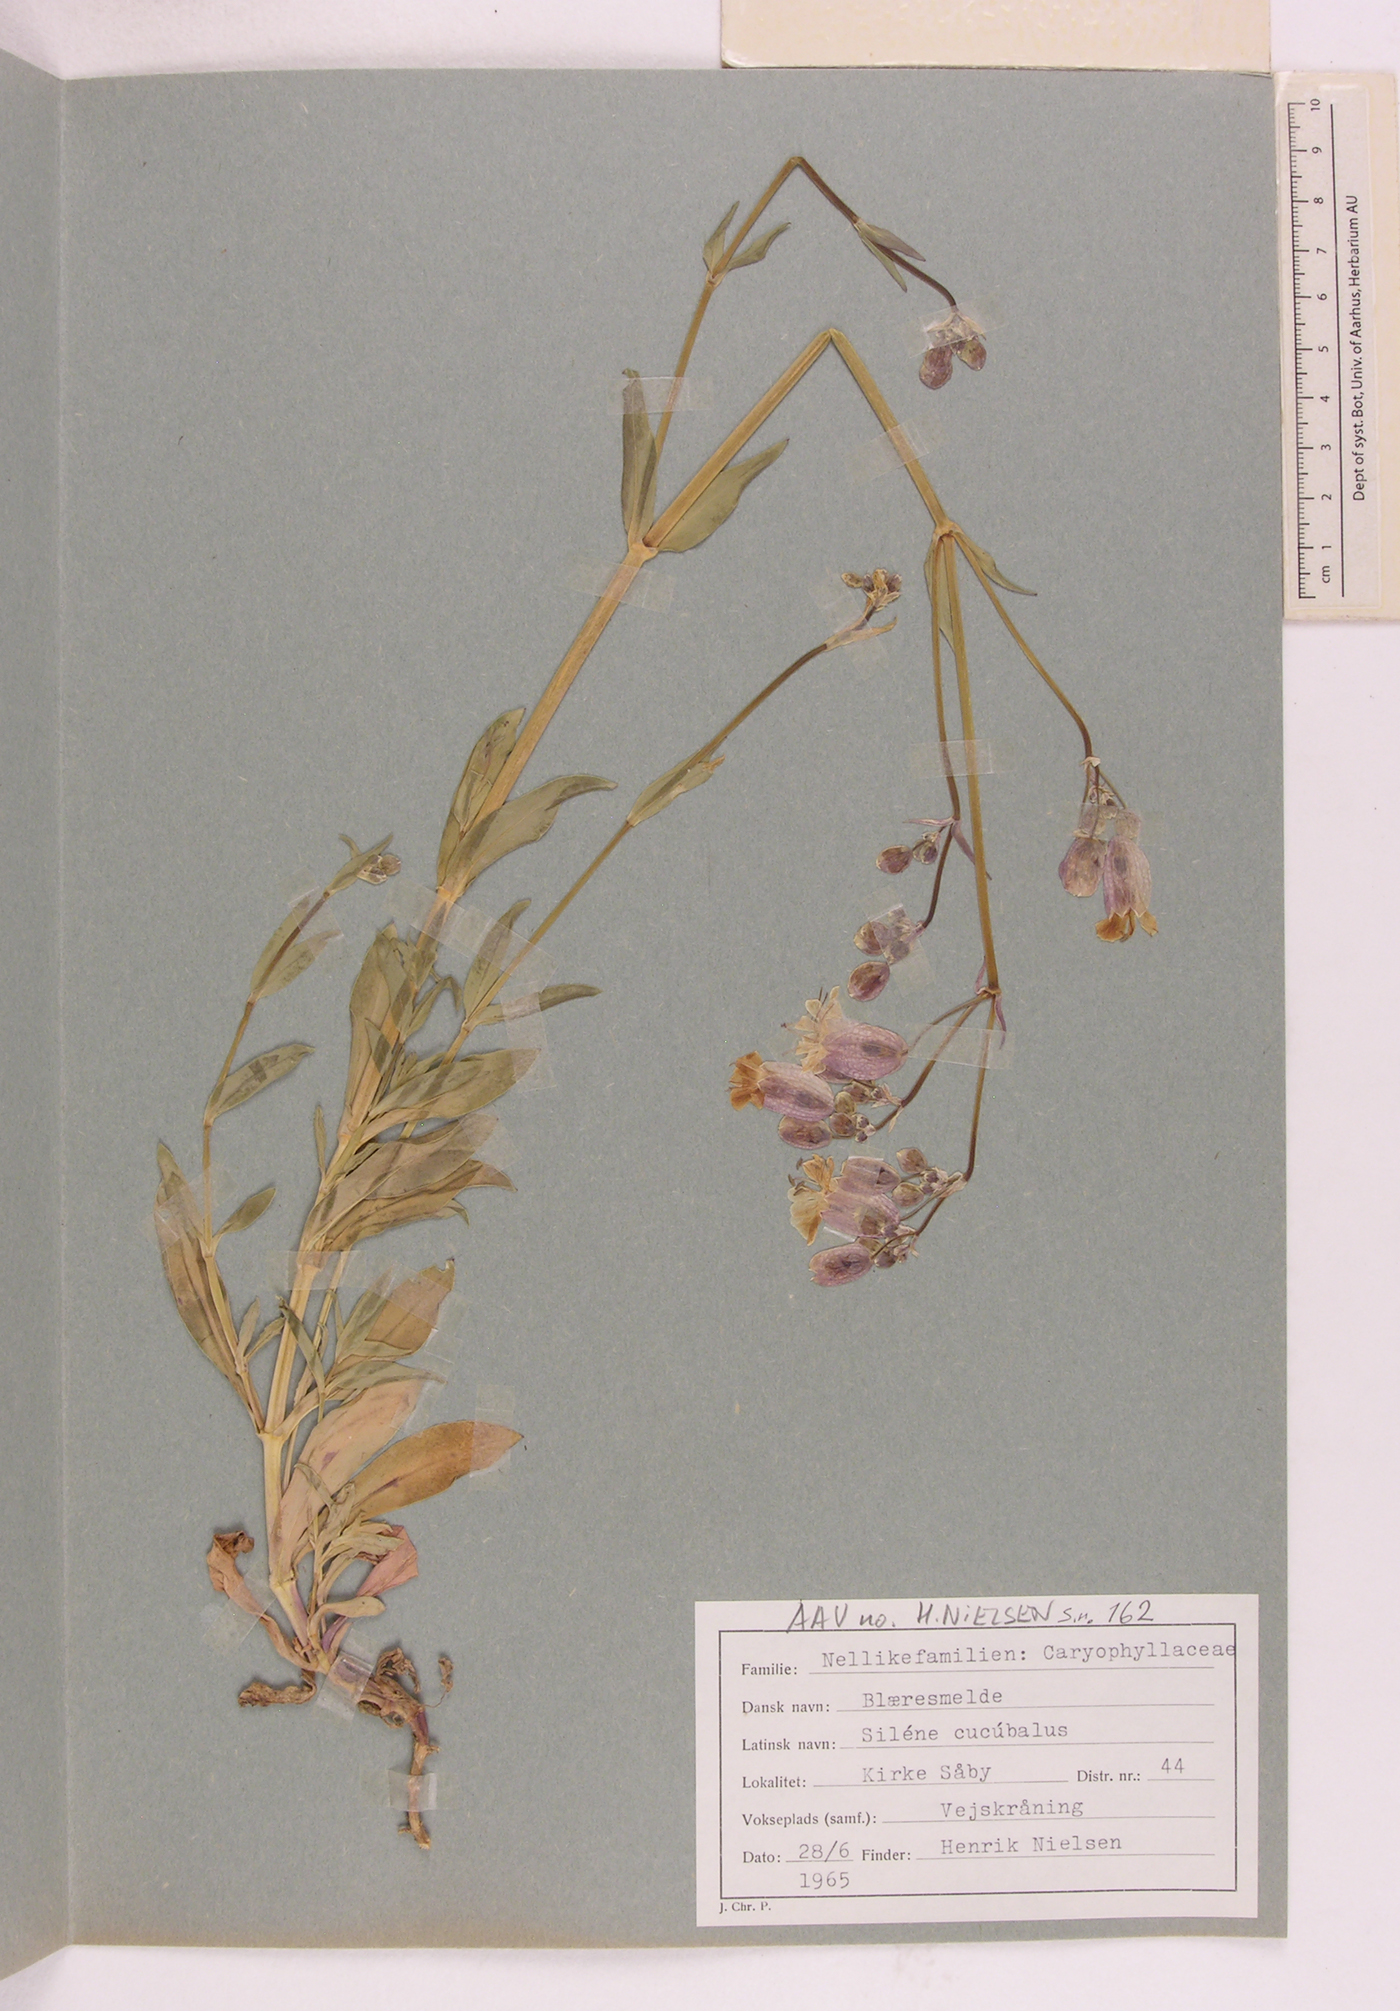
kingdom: Plantae
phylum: Tracheophyta
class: Magnoliopsida
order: Caryophyllales
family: Caryophyllaceae
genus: Silene
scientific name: Silene vulgaris
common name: Bladder campion
